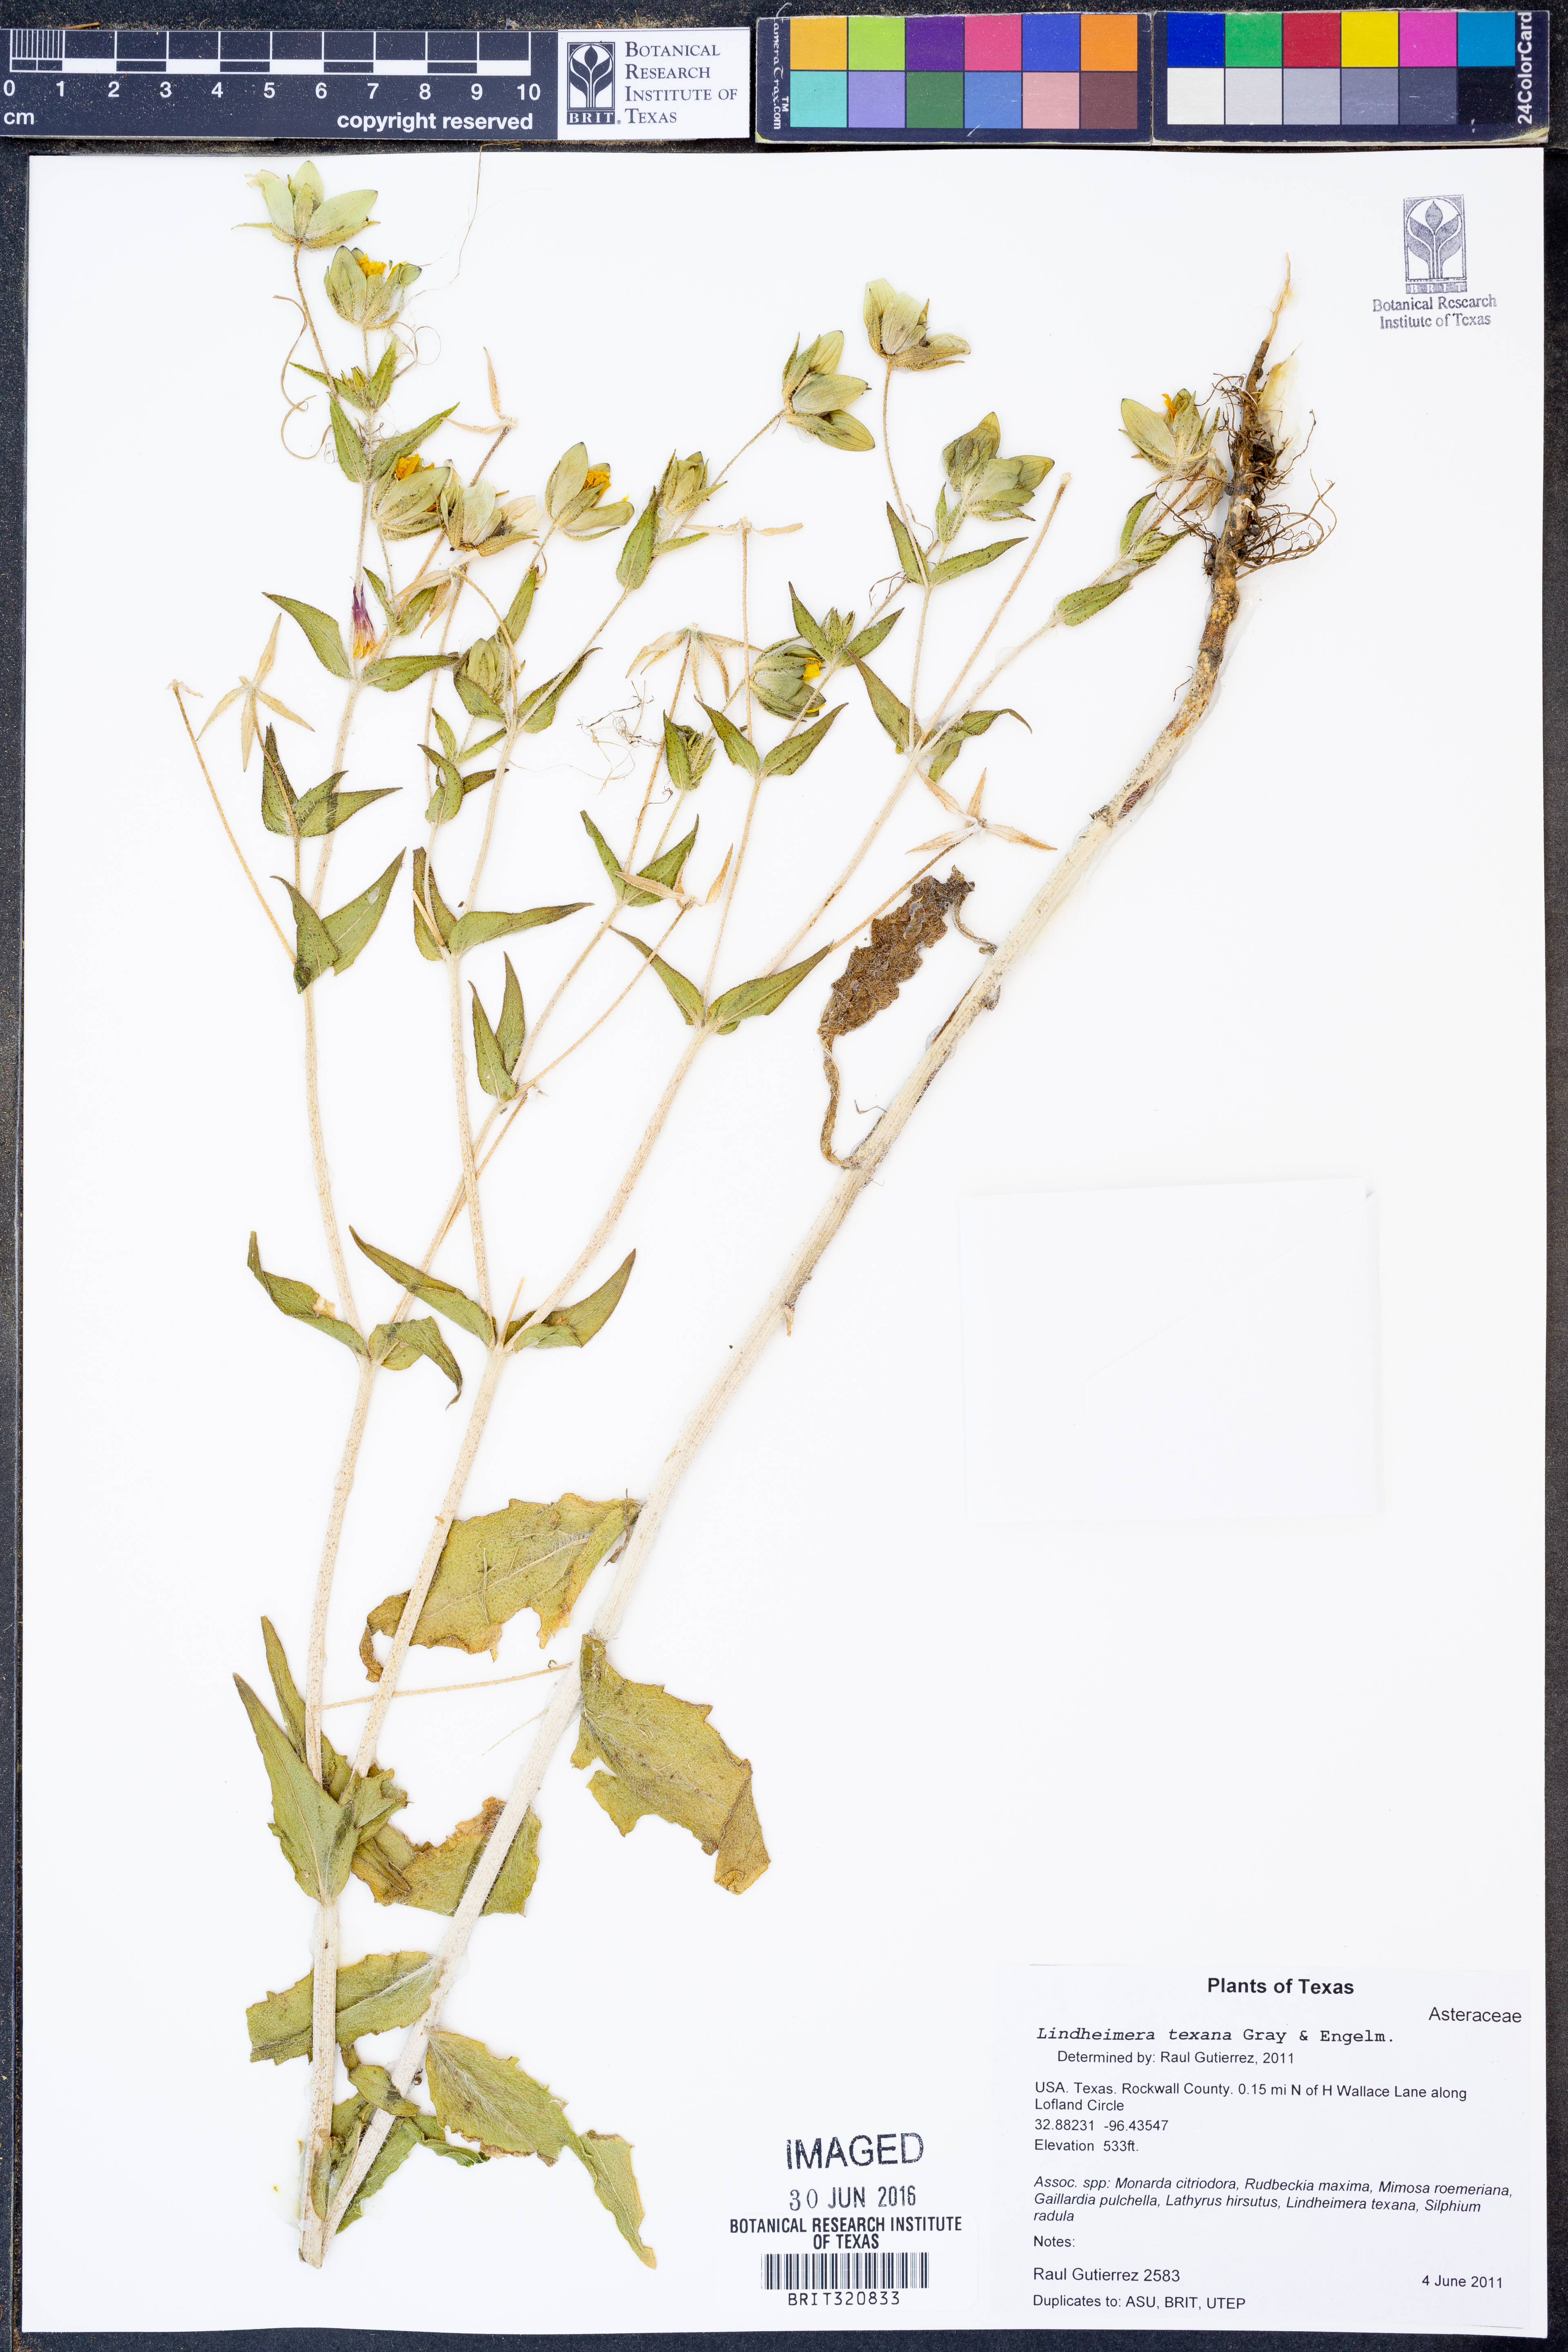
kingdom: Plantae
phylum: Tracheophyta
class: Magnoliopsida
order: Asterales
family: Asteraceae
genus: Lindheimera
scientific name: Lindheimera texana
